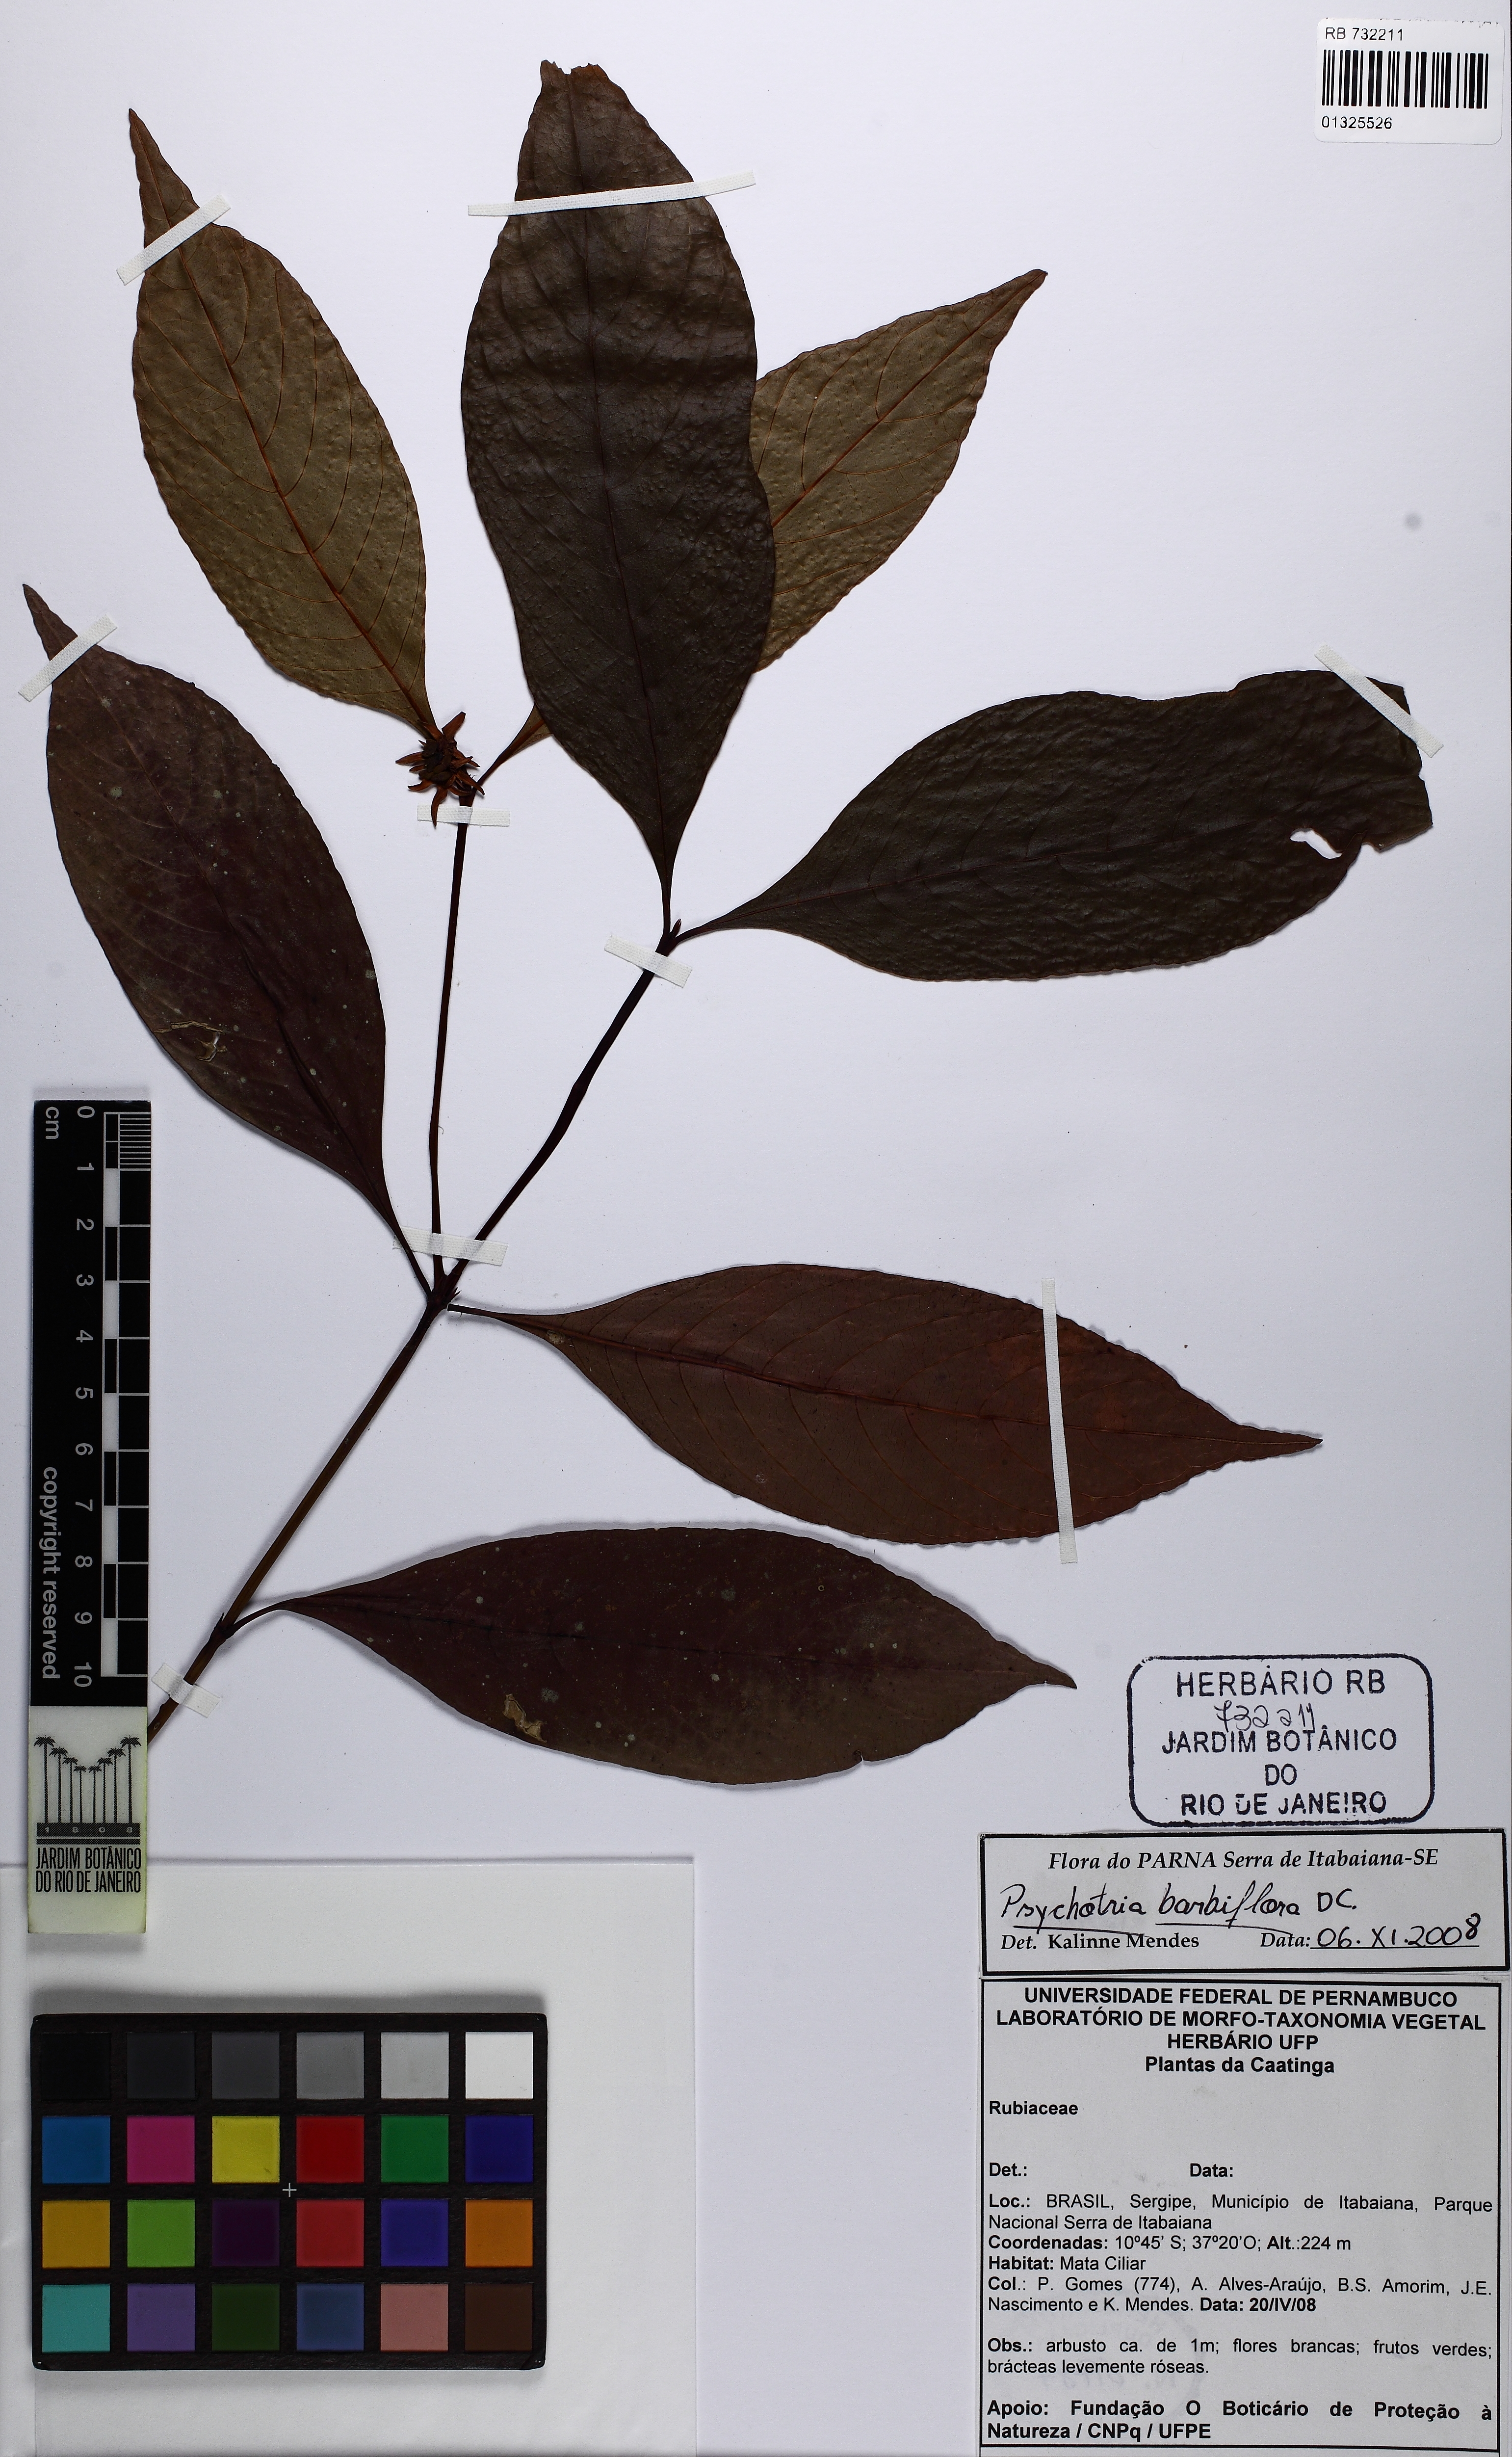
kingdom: Plantae
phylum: Tracheophyta
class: Magnoliopsida
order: Gentianales
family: Rubiaceae
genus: Palicourea
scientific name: Palicourea hoffmannseggiana
